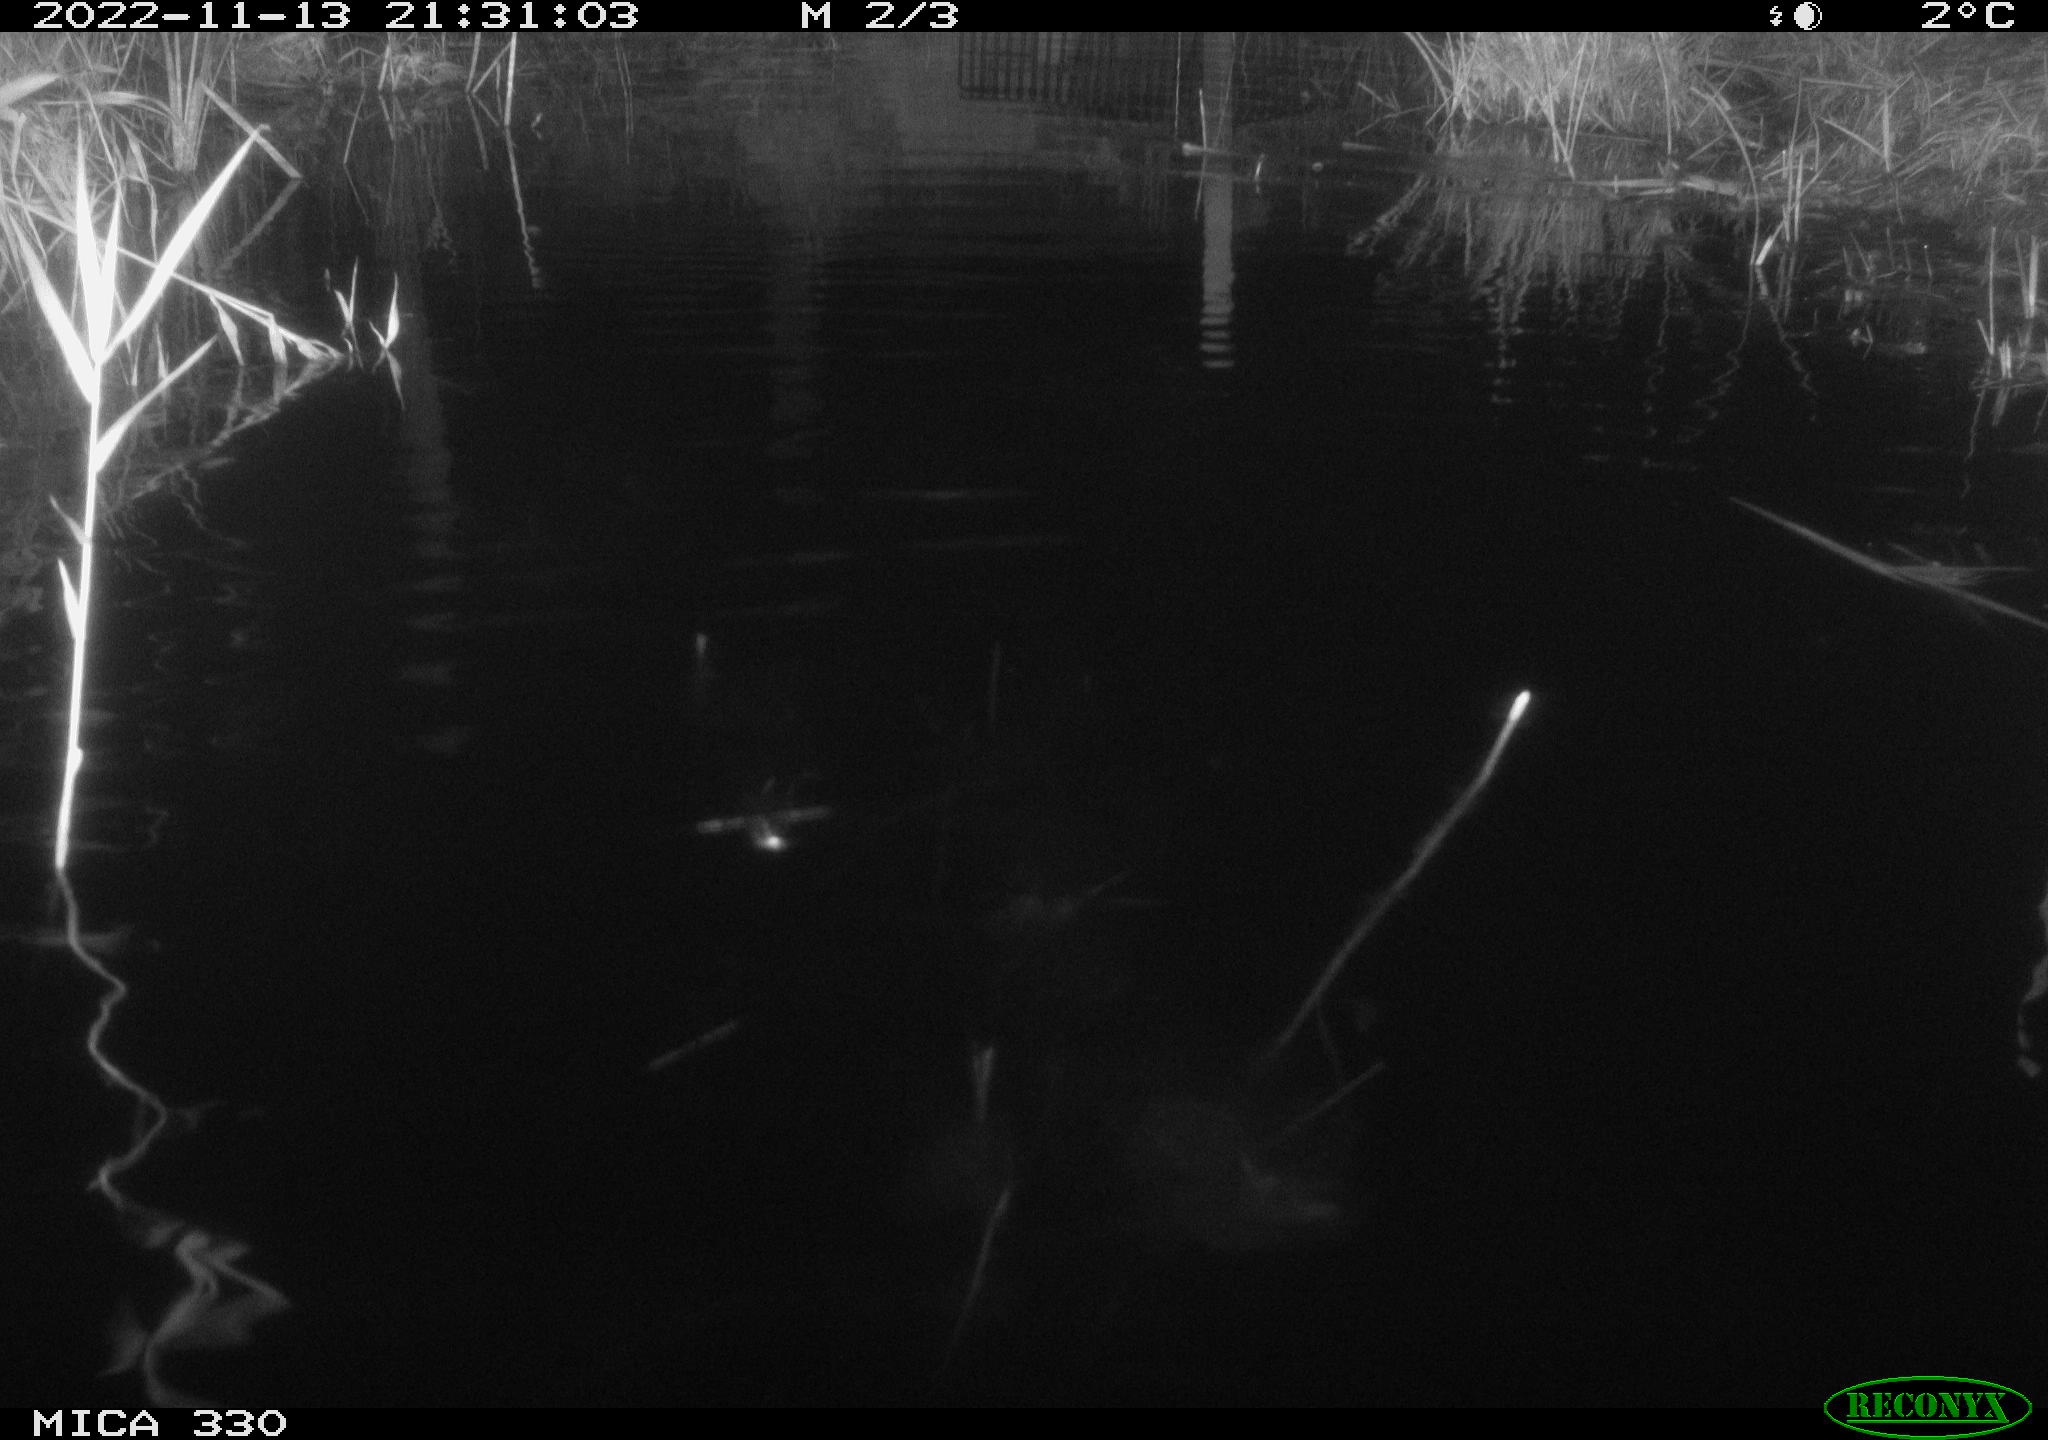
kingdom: Animalia
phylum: Chordata
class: Aves
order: Gruiformes
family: Rallidae
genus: Gallinula
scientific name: Gallinula chloropus
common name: Common moorhen
